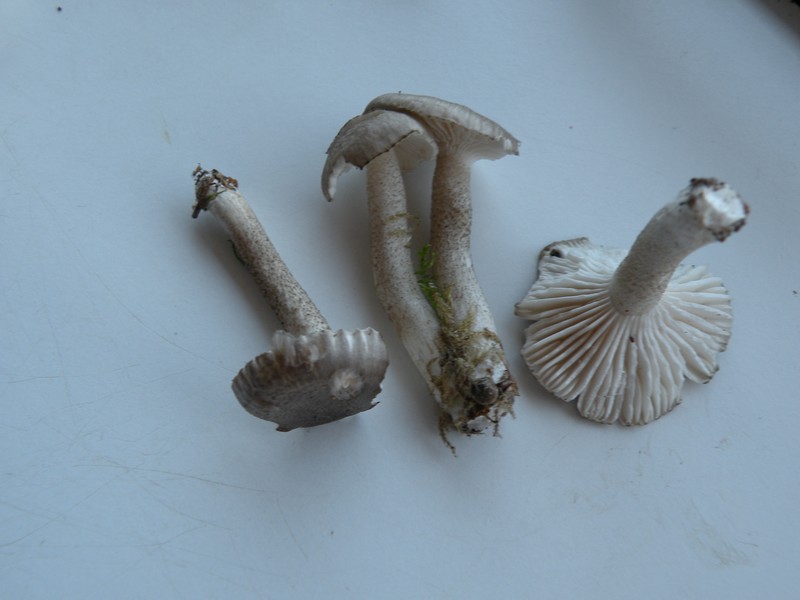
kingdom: Fungi
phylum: Basidiomycota
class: Agaricomycetes
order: Agaricales
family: Hygrophoraceae
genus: Hygrophorus
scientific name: Hygrophorus pustulatus
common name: mørkprikket sneglehat
